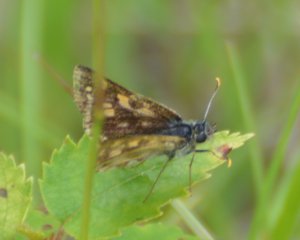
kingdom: Animalia
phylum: Arthropoda
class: Insecta
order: Lepidoptera
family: Hesperiidae
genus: Carterocephalus
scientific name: Carterocephalus palaemon
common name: Chequered Skipper
